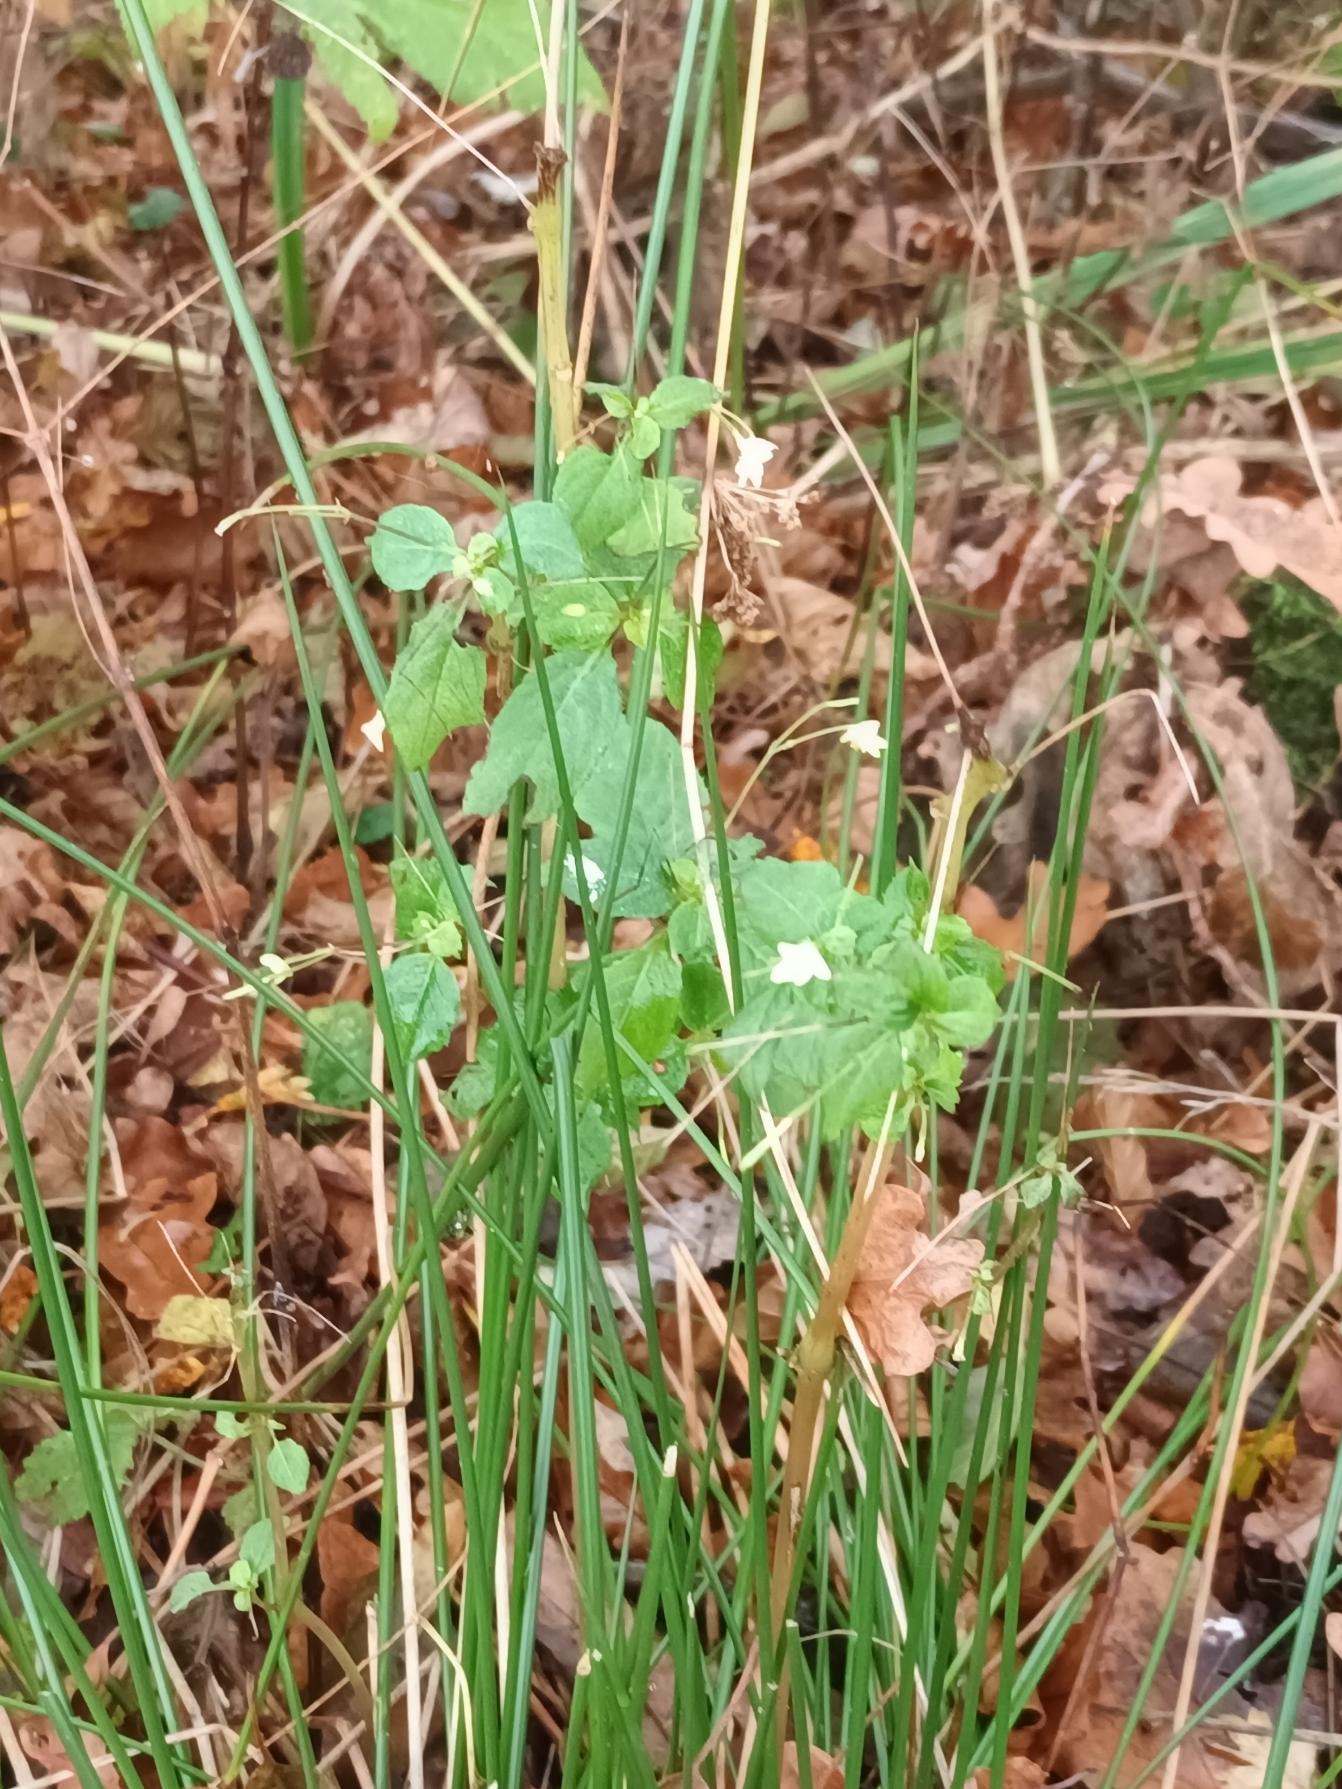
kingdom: Plantae
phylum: Tracheophyta
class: Magnoliopsida
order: Ericales
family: Balsaminaceae
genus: Impatiens
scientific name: Impatiens parviflora
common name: Småblomstret balsamin
